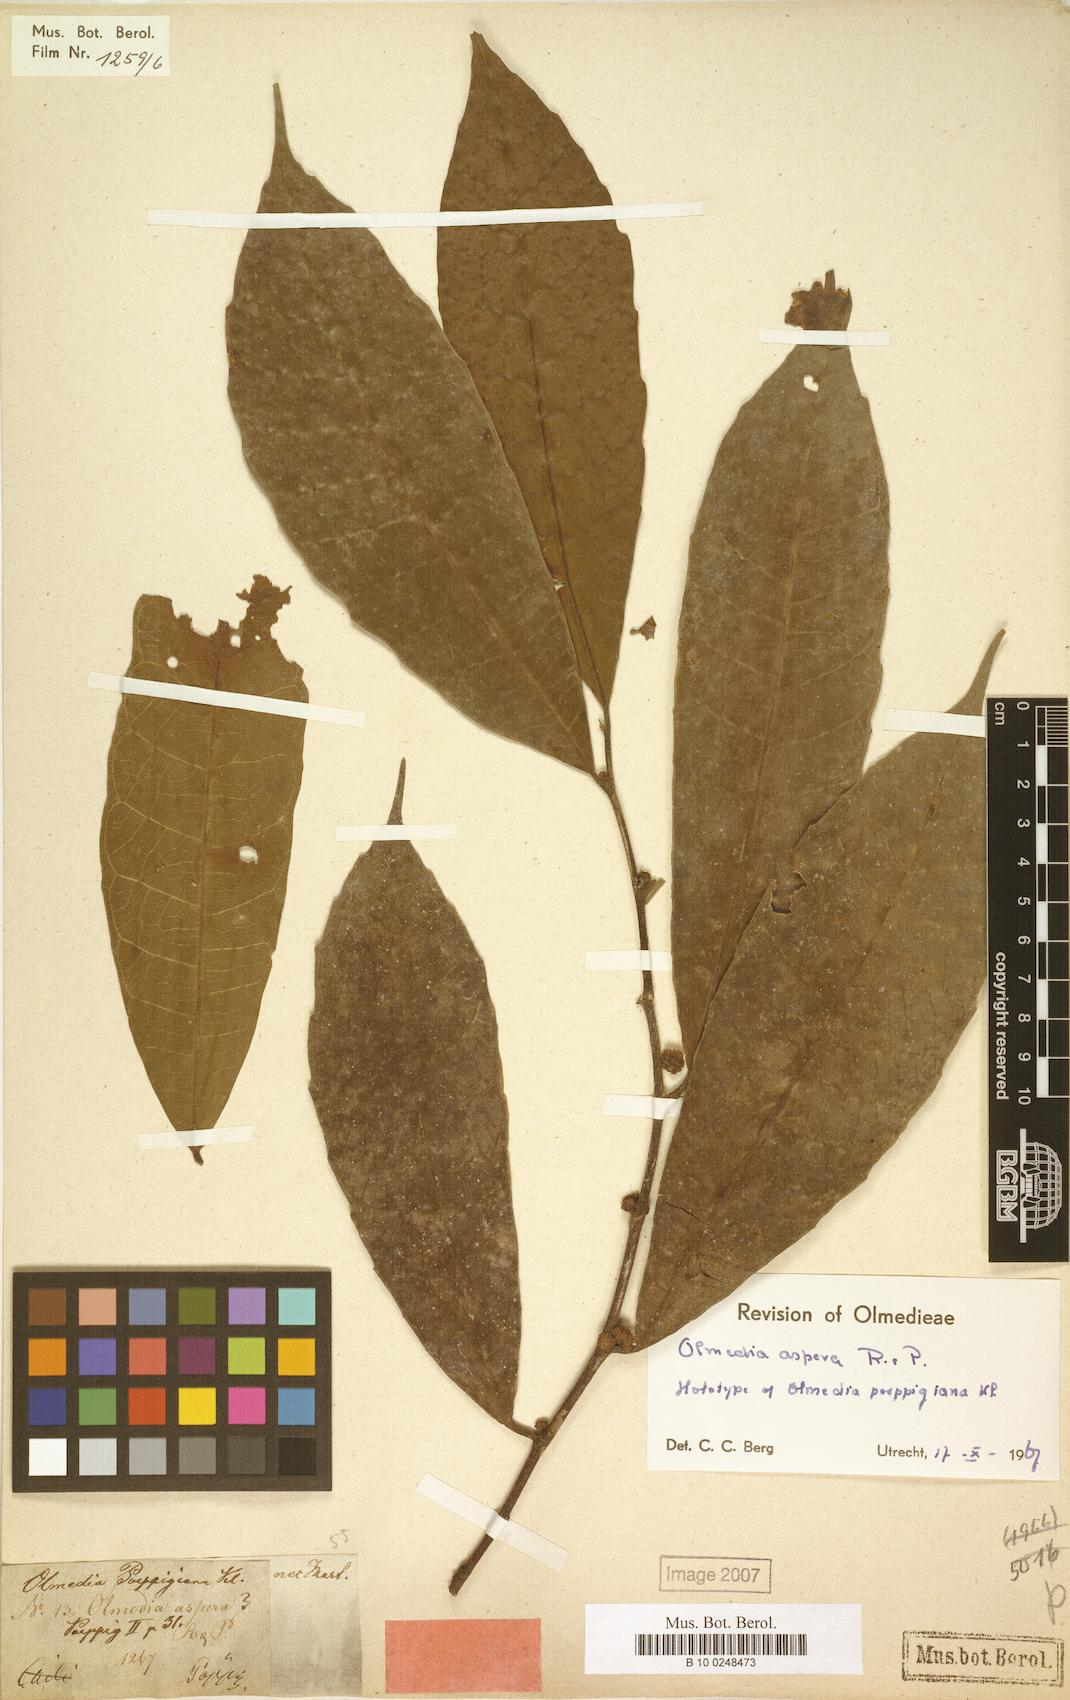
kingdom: Plantae
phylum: Tracheophyta
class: Magnoliopsida
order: Rosales
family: Moraceae
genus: Olmedia
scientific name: Olmedia aspera
